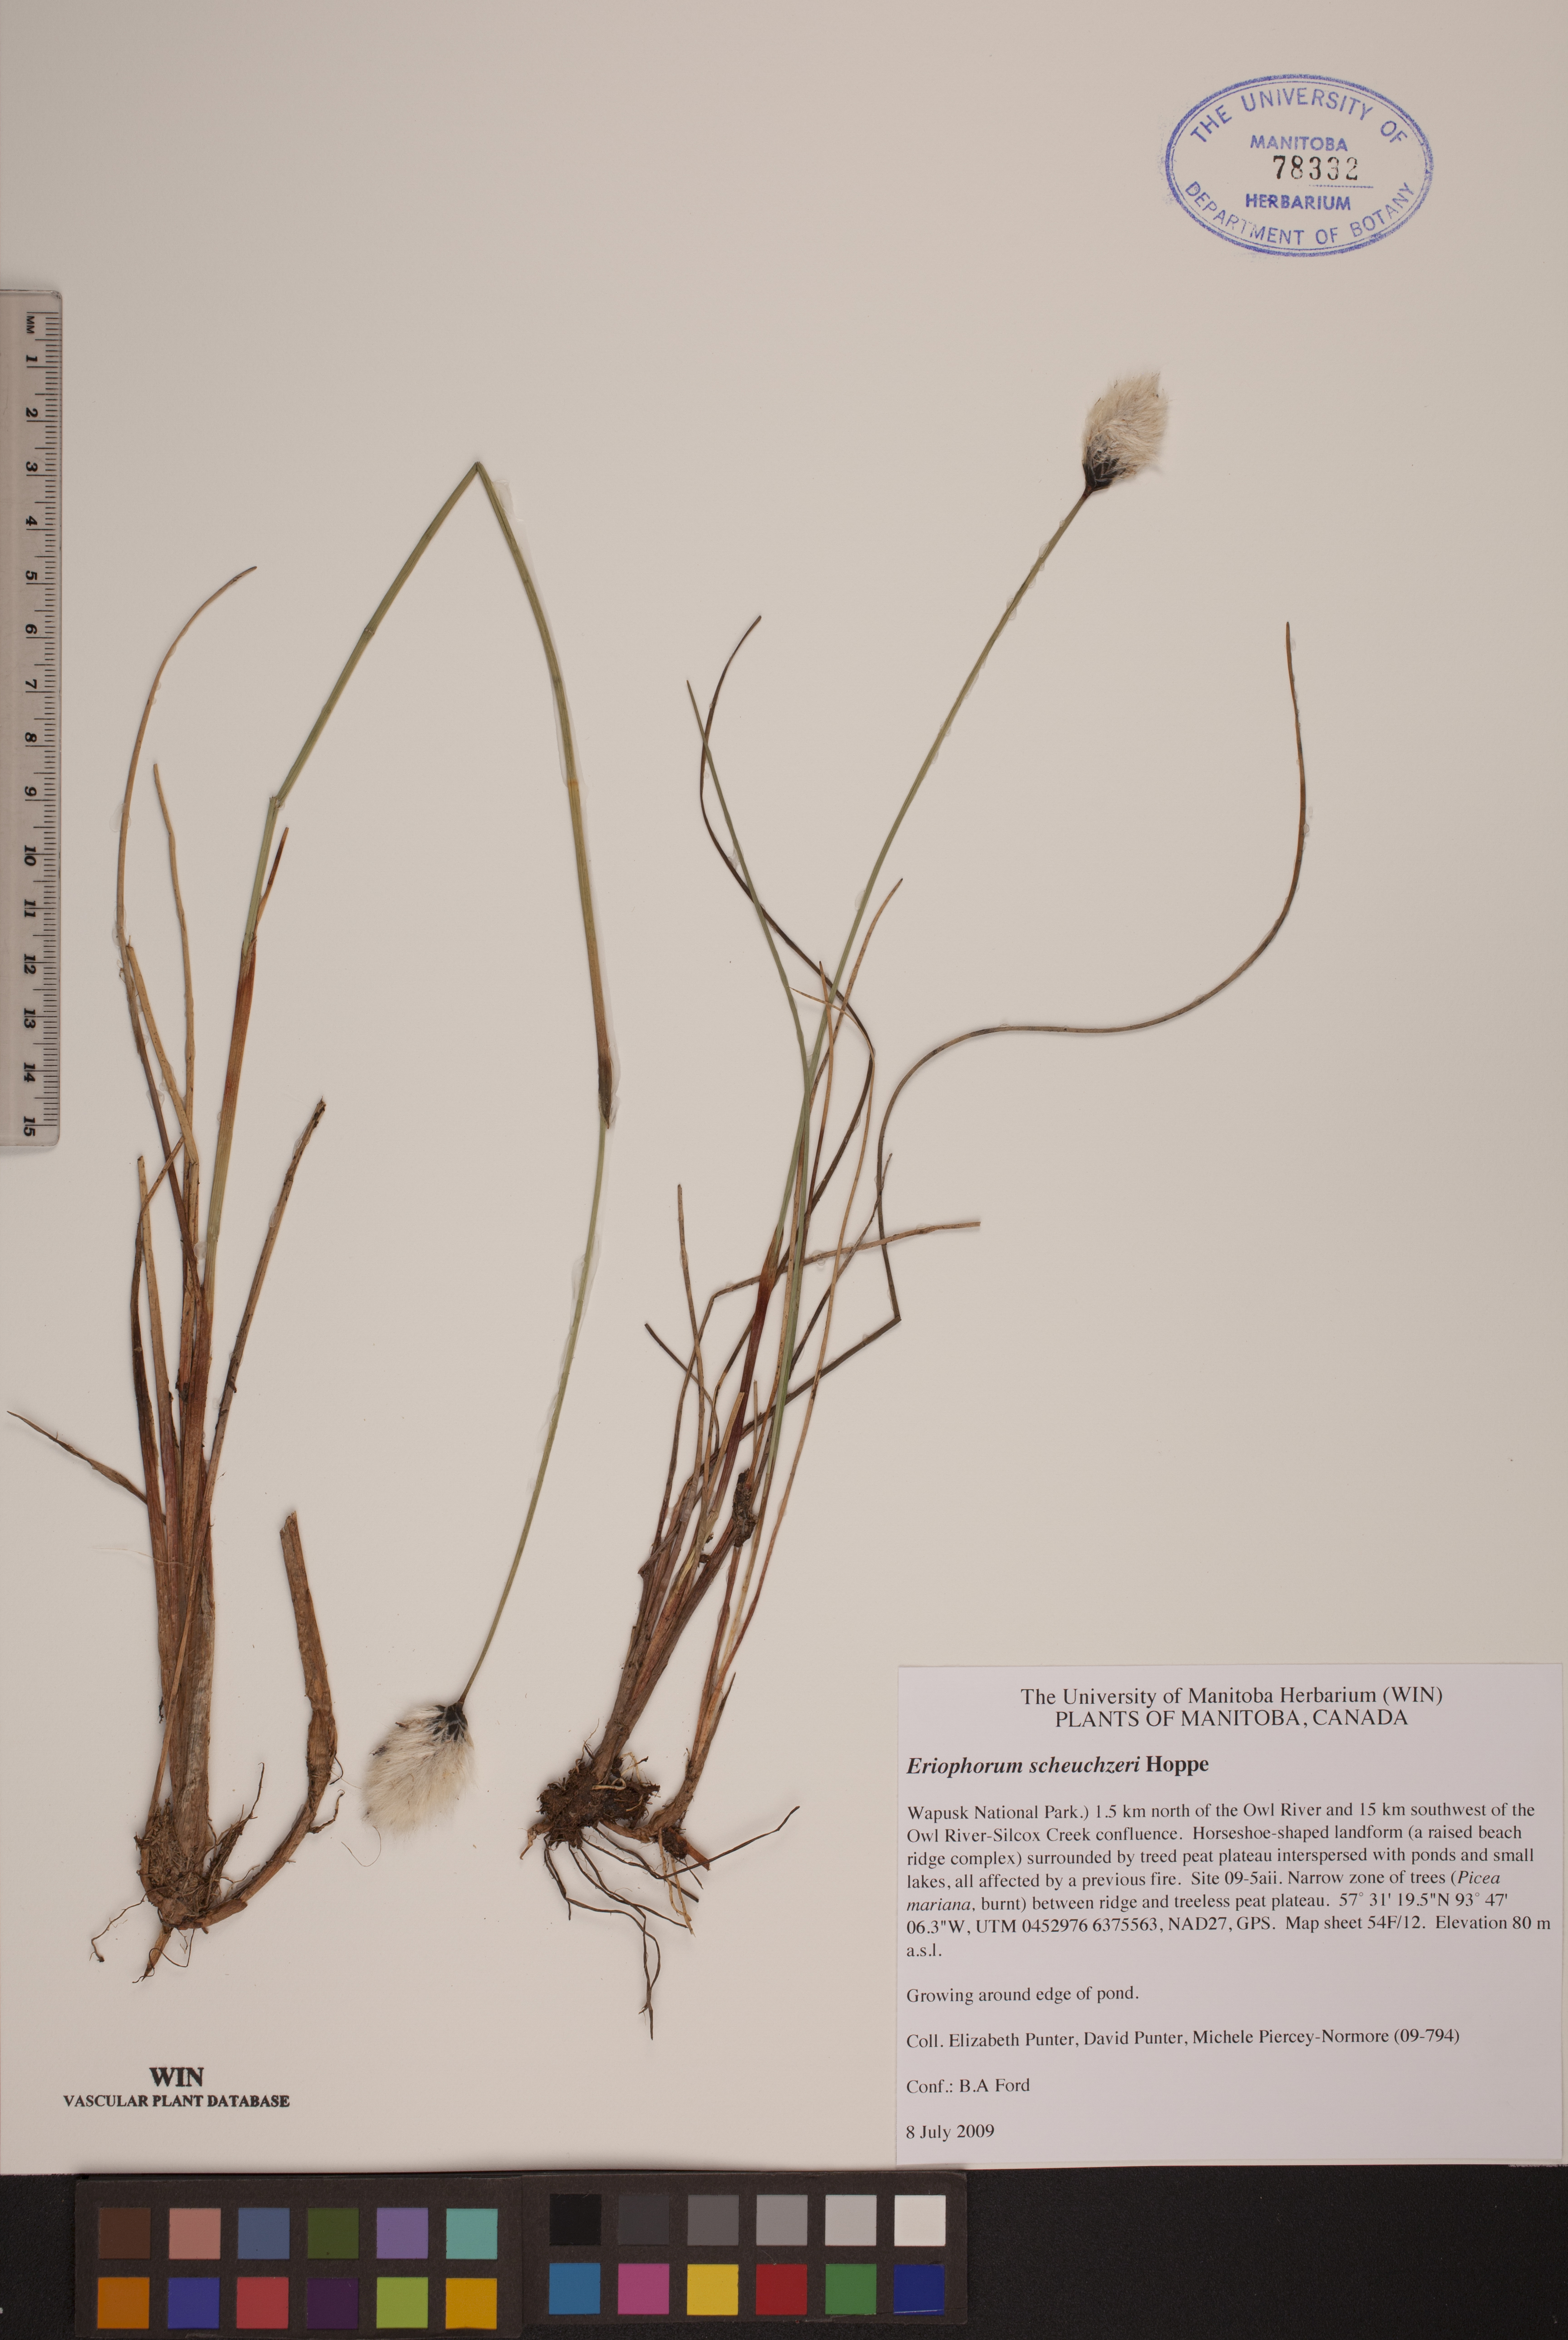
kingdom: Plantae
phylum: Tracheophyta
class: Liliopsida
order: Poales
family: Cyperaceae
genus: Eriophorum
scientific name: Eriophorum scheuchzeri
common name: Scheuchzer's cottongrass
